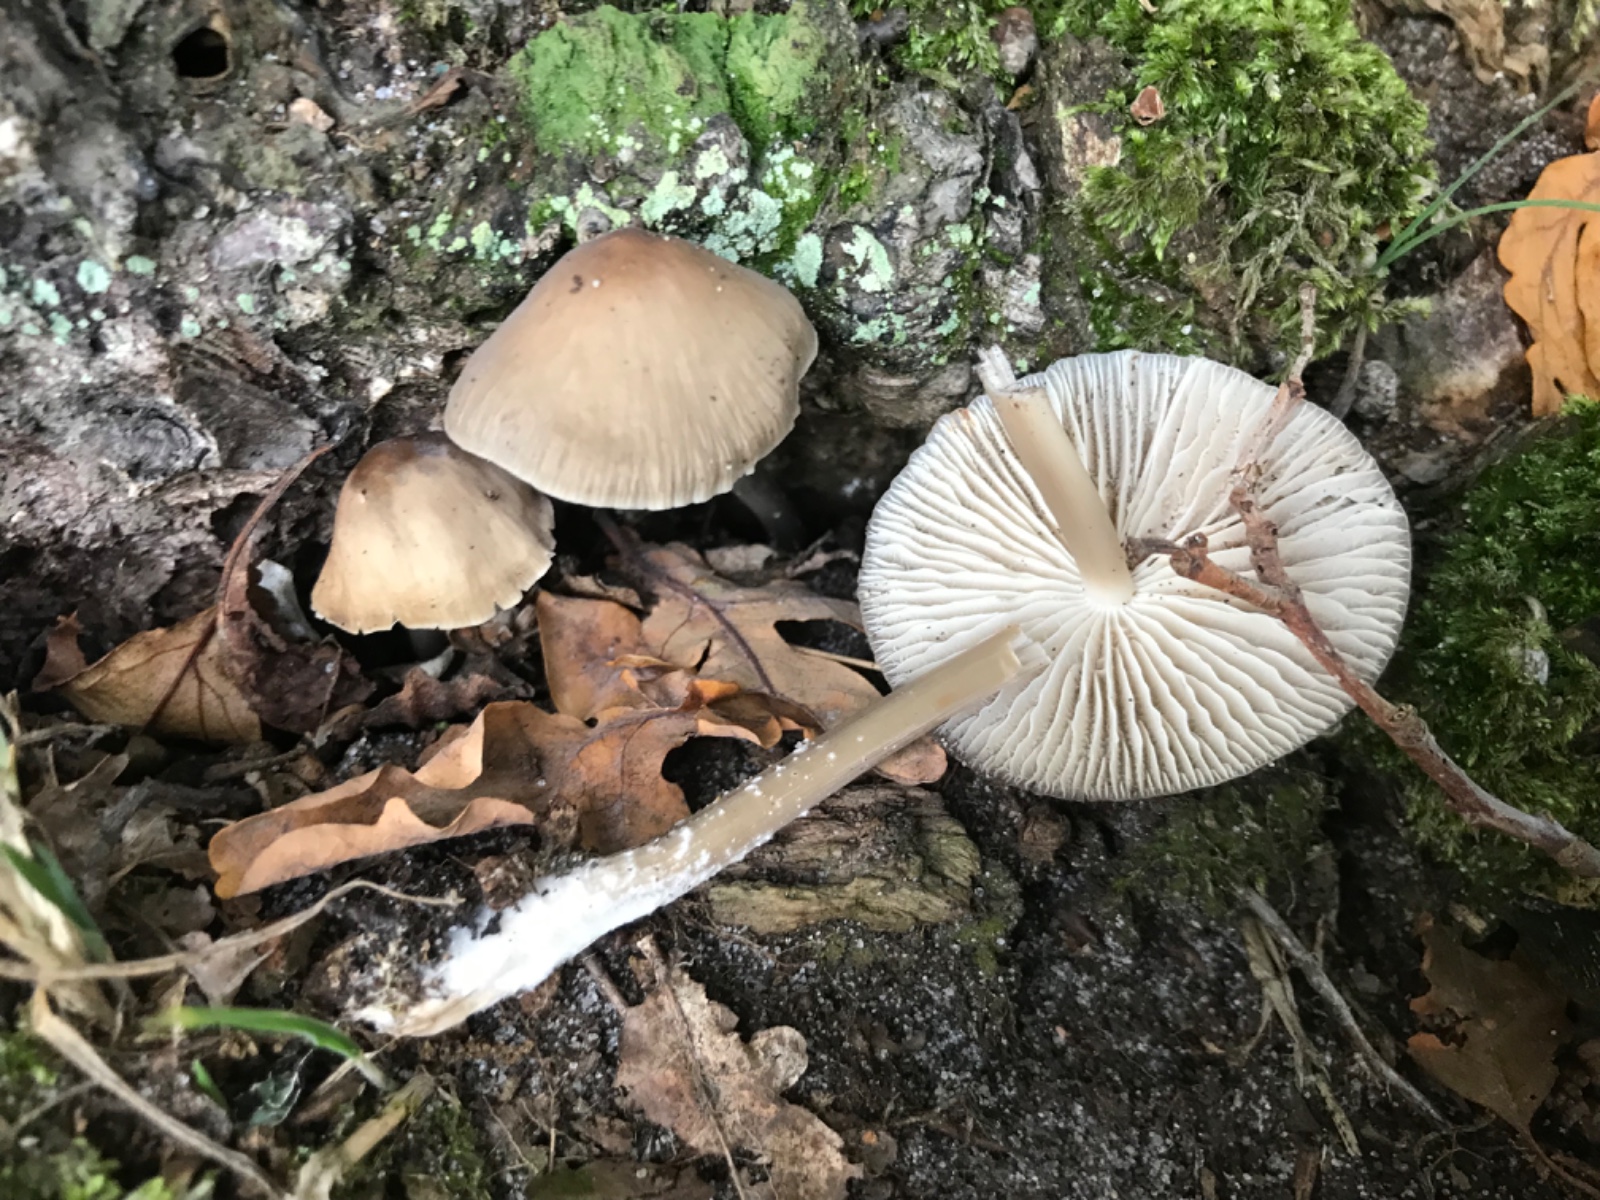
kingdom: Fungi
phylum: Basidiomycota
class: Agaricomycetes
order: Agaricales
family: Mycenaceae
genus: Mycena
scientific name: Mycena galericulata
